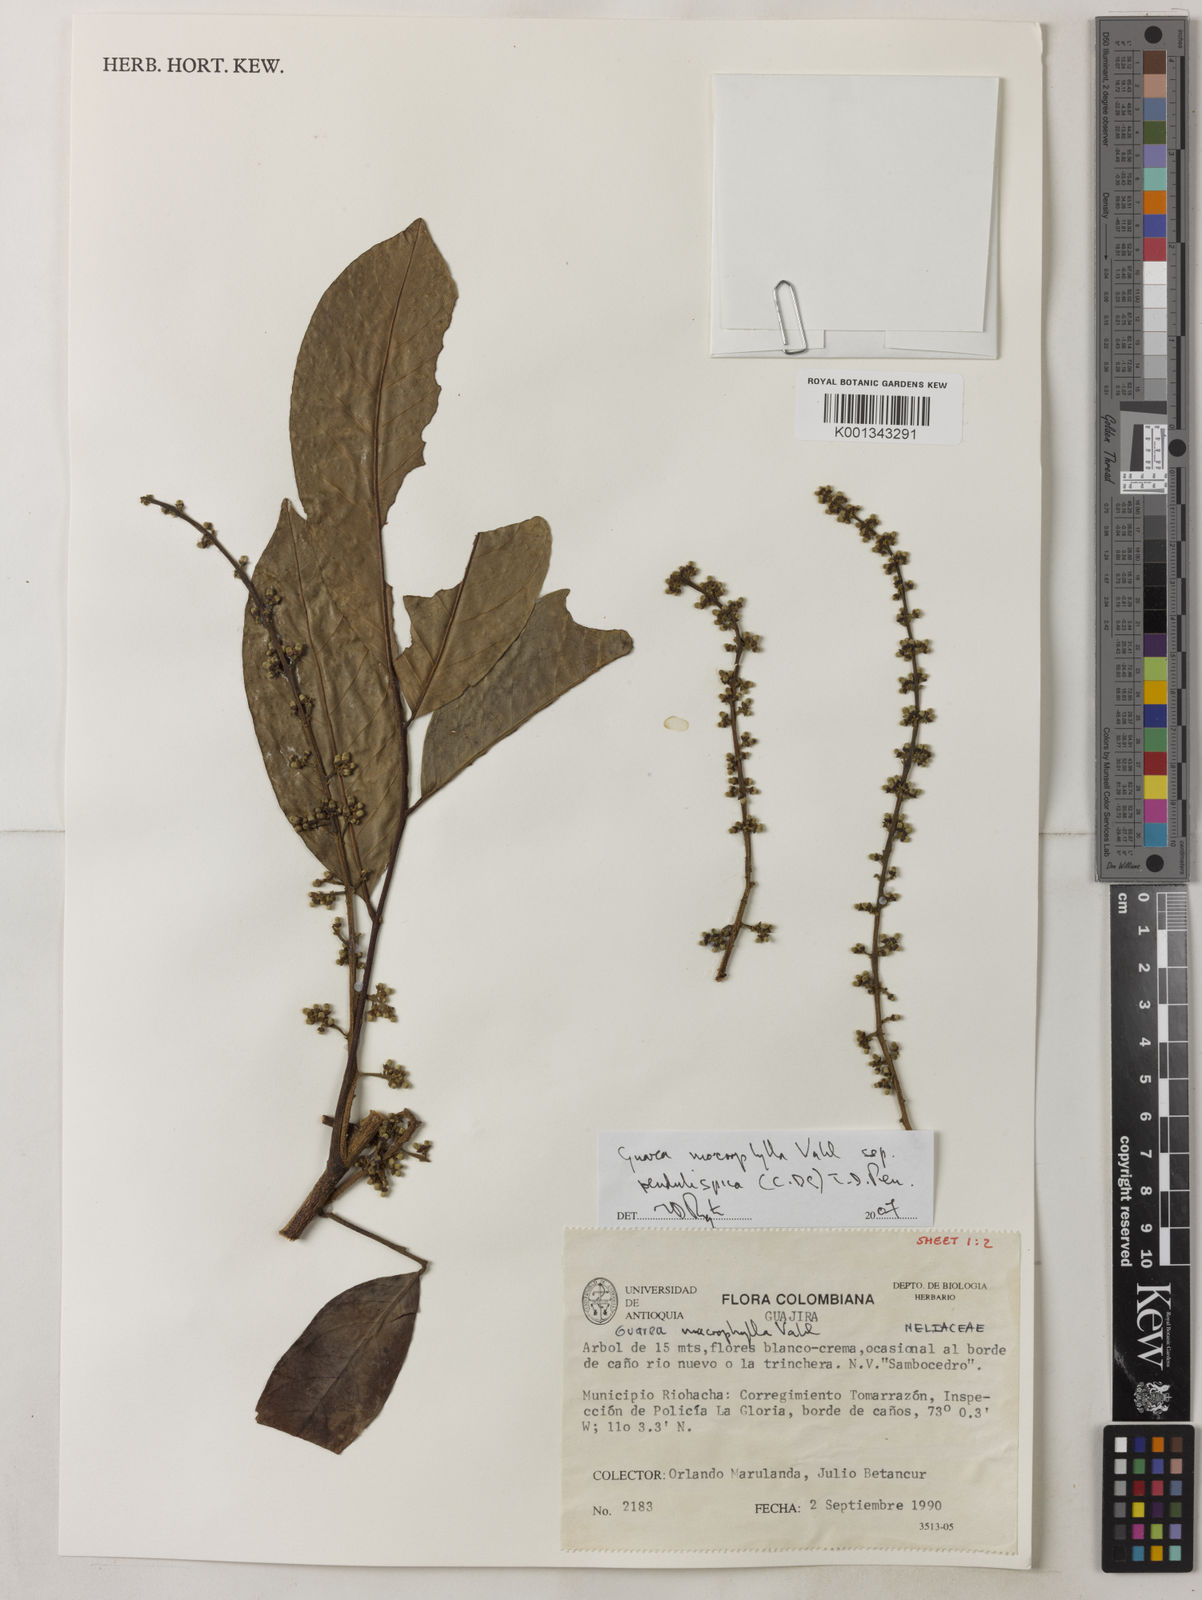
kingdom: Plantae
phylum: Tracheophyta
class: Magnoliopsida
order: Sapindales
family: Meliaceae
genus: Guarea
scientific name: Guarea macrophylla
